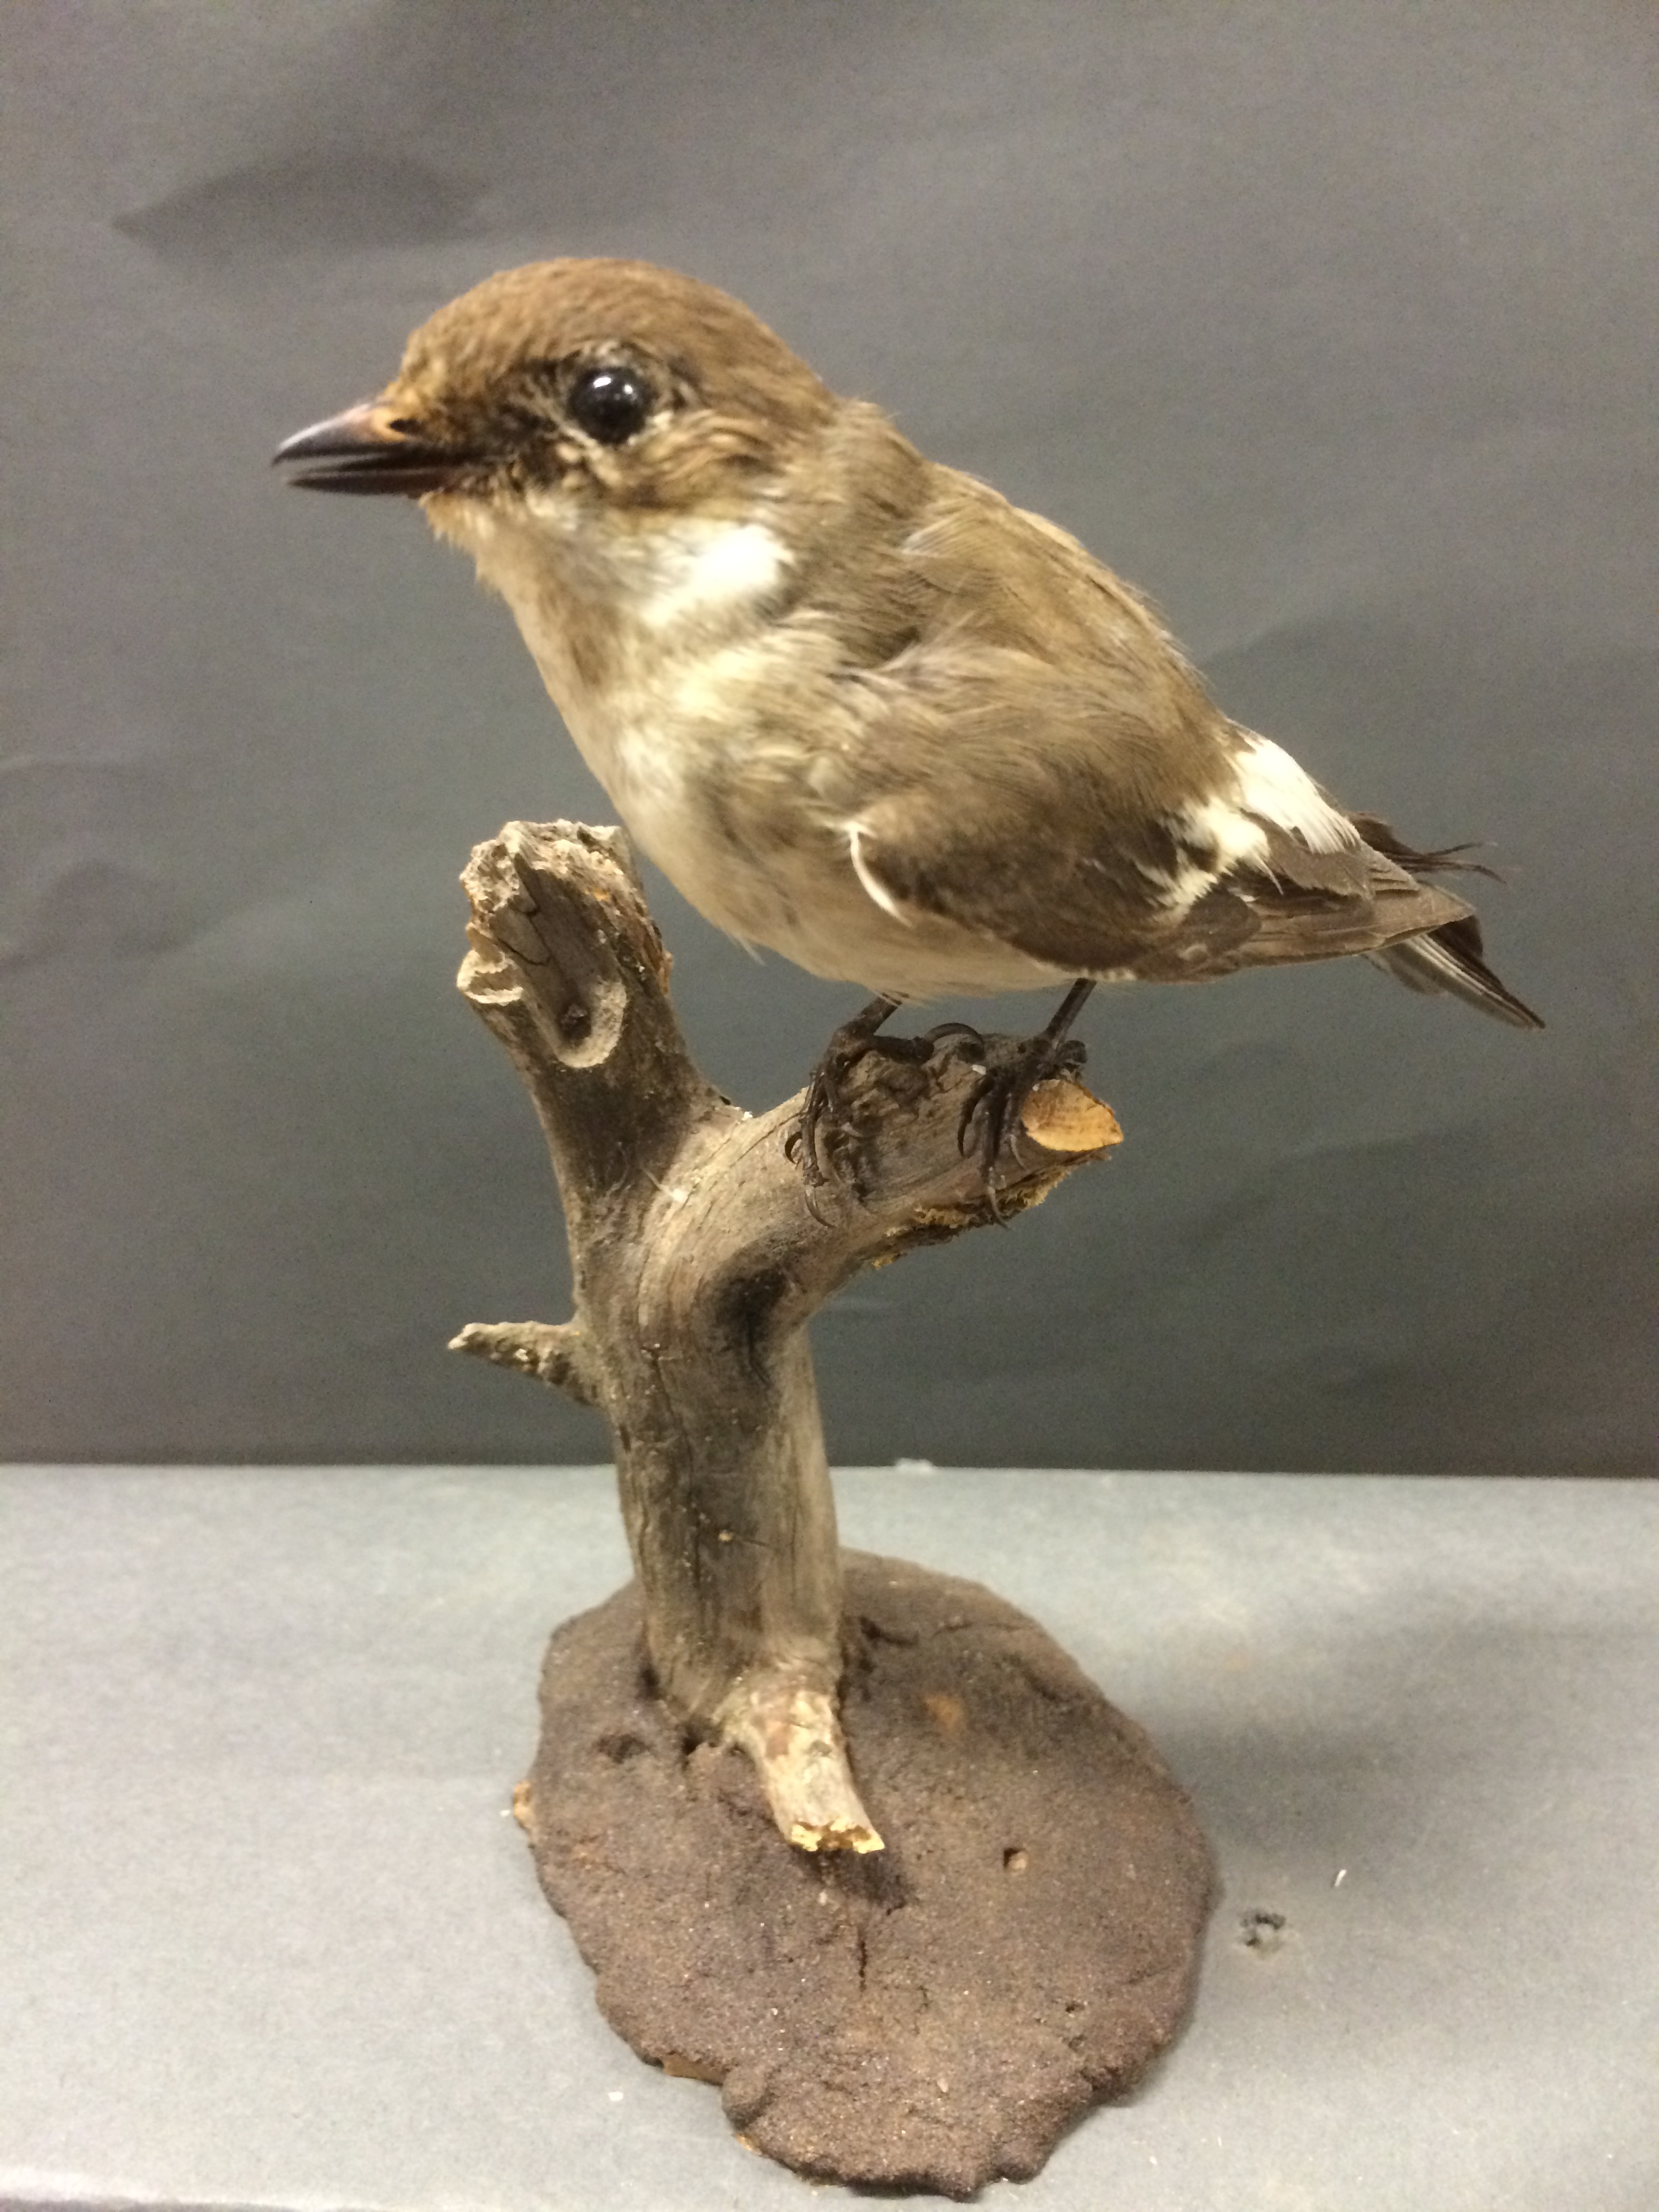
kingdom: Animalia
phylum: Chordata
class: Aves
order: Passeriformes
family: Muscicapidae
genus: Ficedula
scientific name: Ficedula hypoleuca
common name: European pied flycatcher
